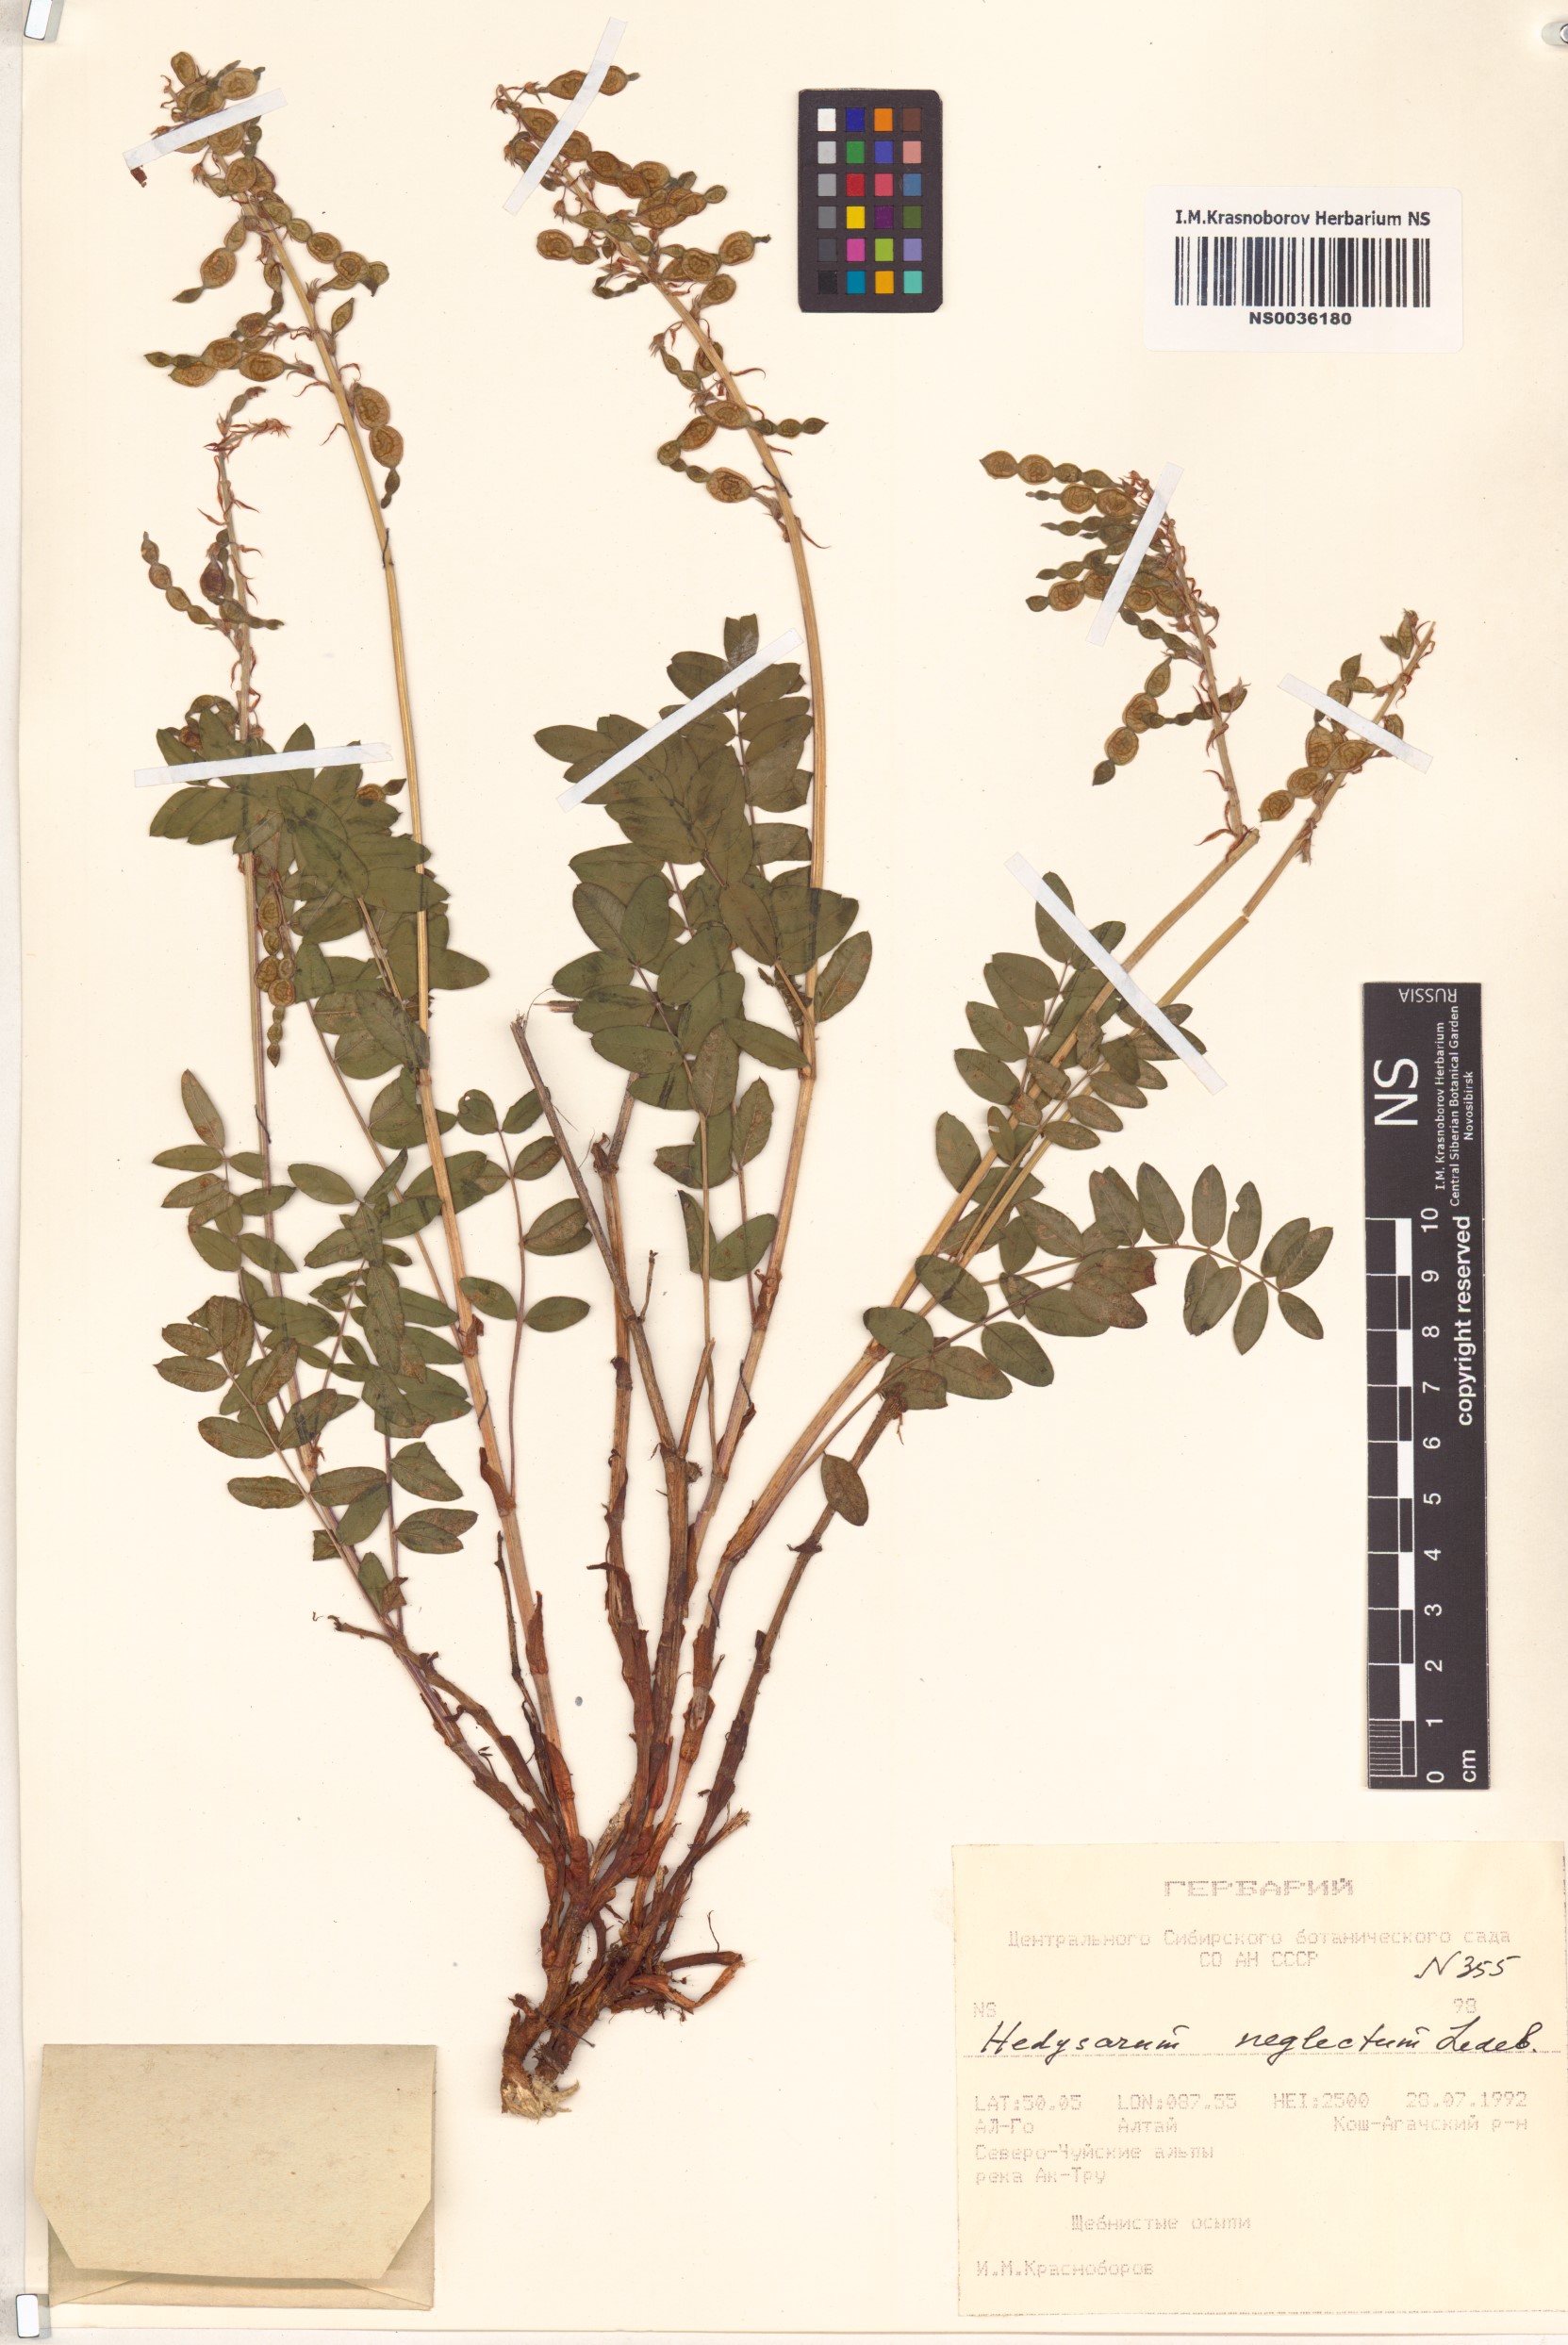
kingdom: Plantae
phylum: Tracheophyta
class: Magnoliopsida
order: Fabales
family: Fabaceae
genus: Hedysarum
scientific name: Hedysarum neglectum
